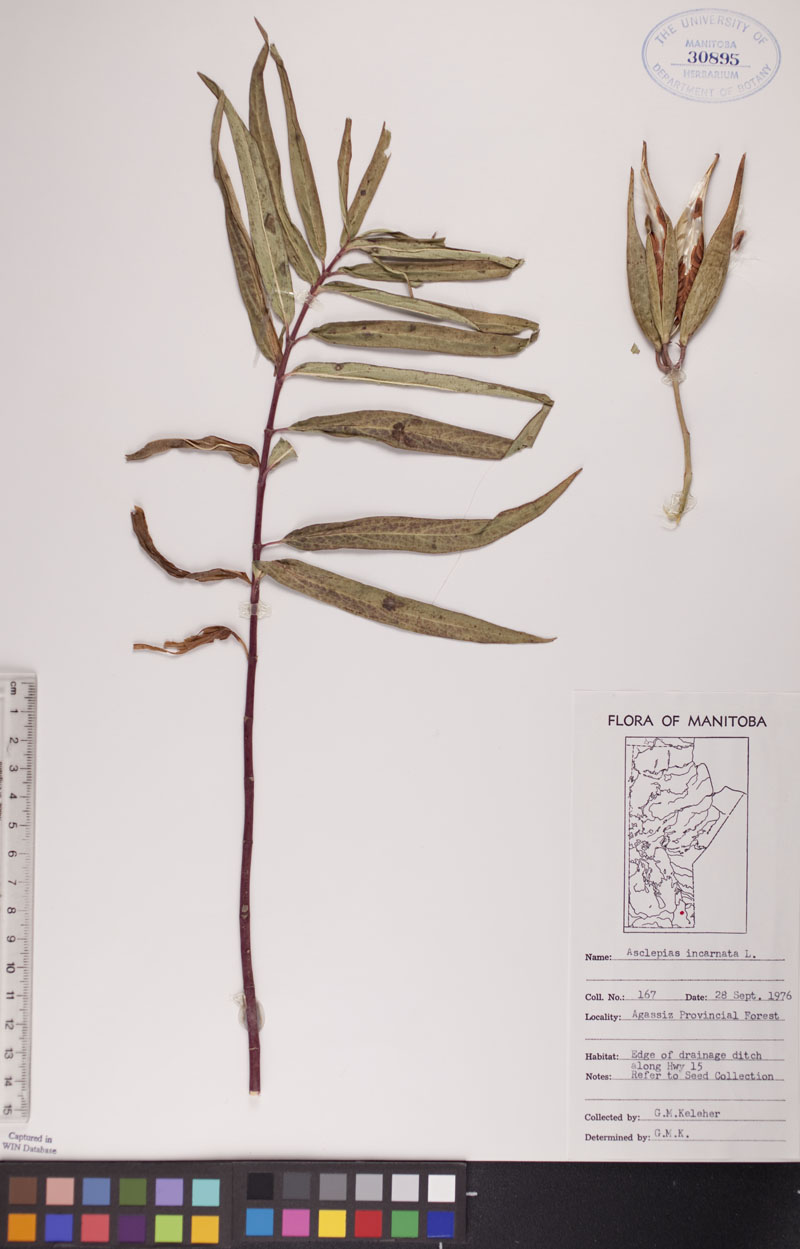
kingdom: Plantae
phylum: Tracheophyta
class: Magnoliopsida
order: Gentianales
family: Apocynaceae
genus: Asclepias
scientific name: Asclepias incarnata
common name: Swamp milkweed
